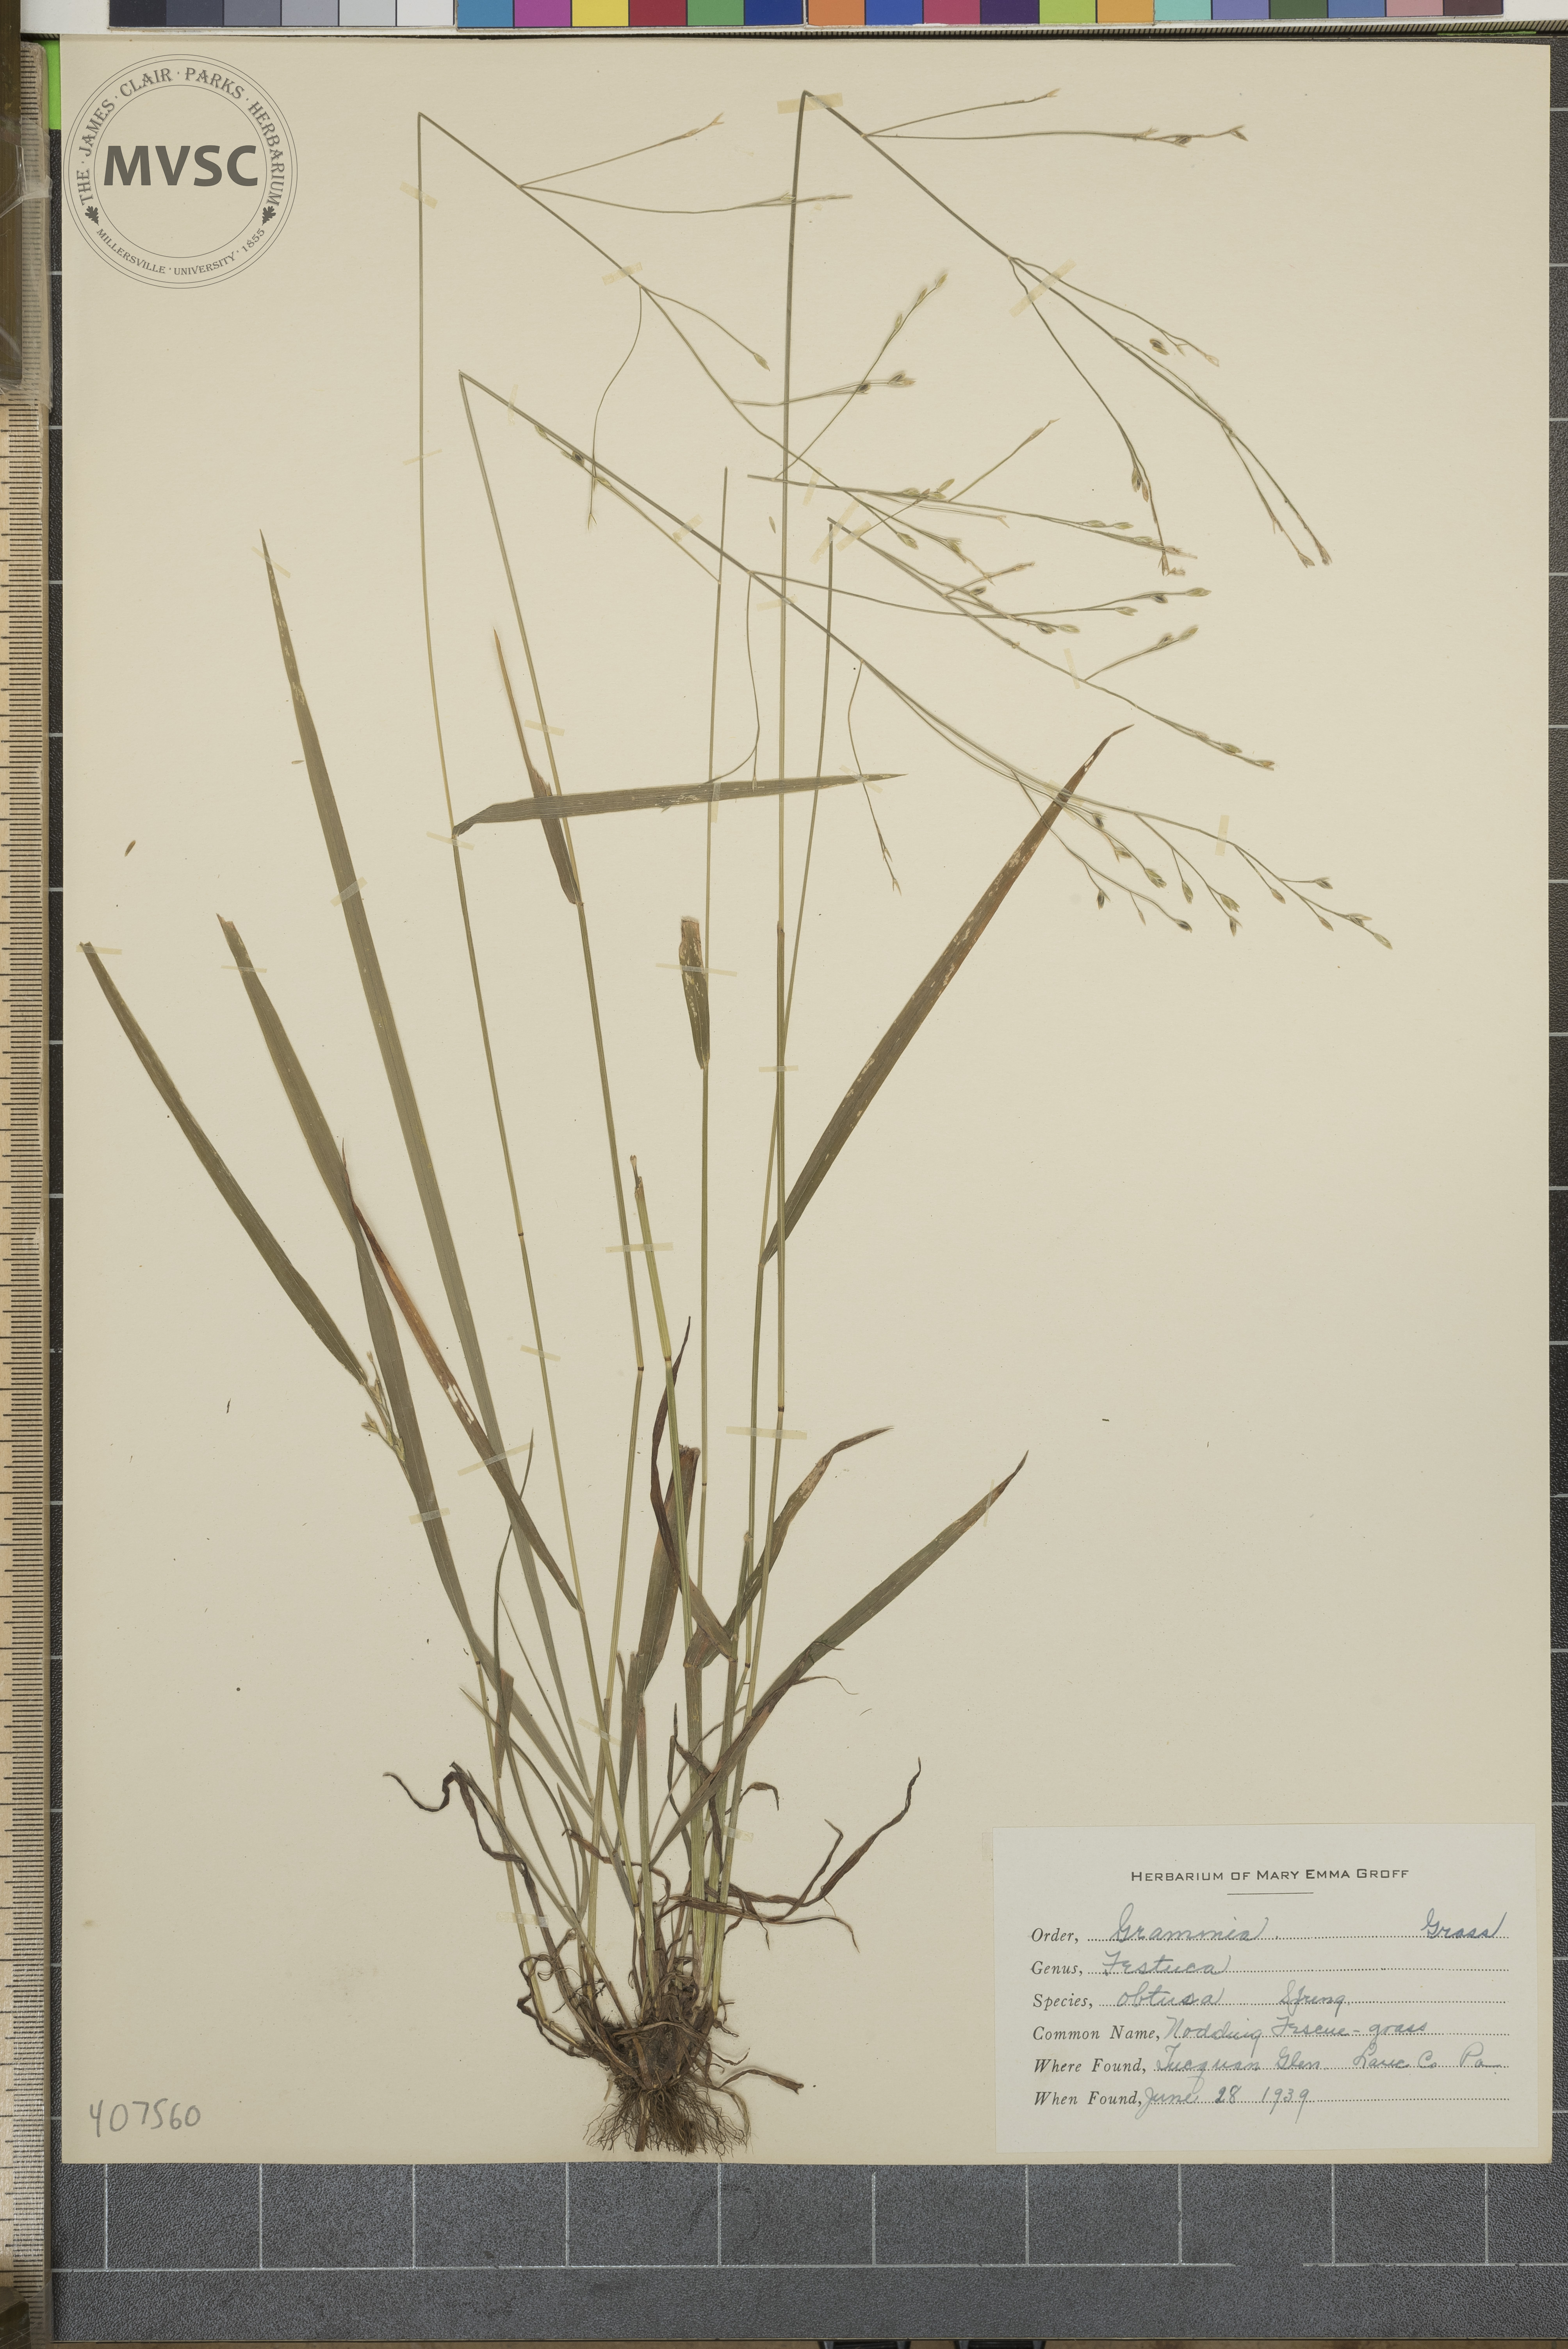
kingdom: Plantae
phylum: Tracheophyta
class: Liliopsida
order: Poales
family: Poaceae
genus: Festuca
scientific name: Festuca subverticillata
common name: Nodding fescue
